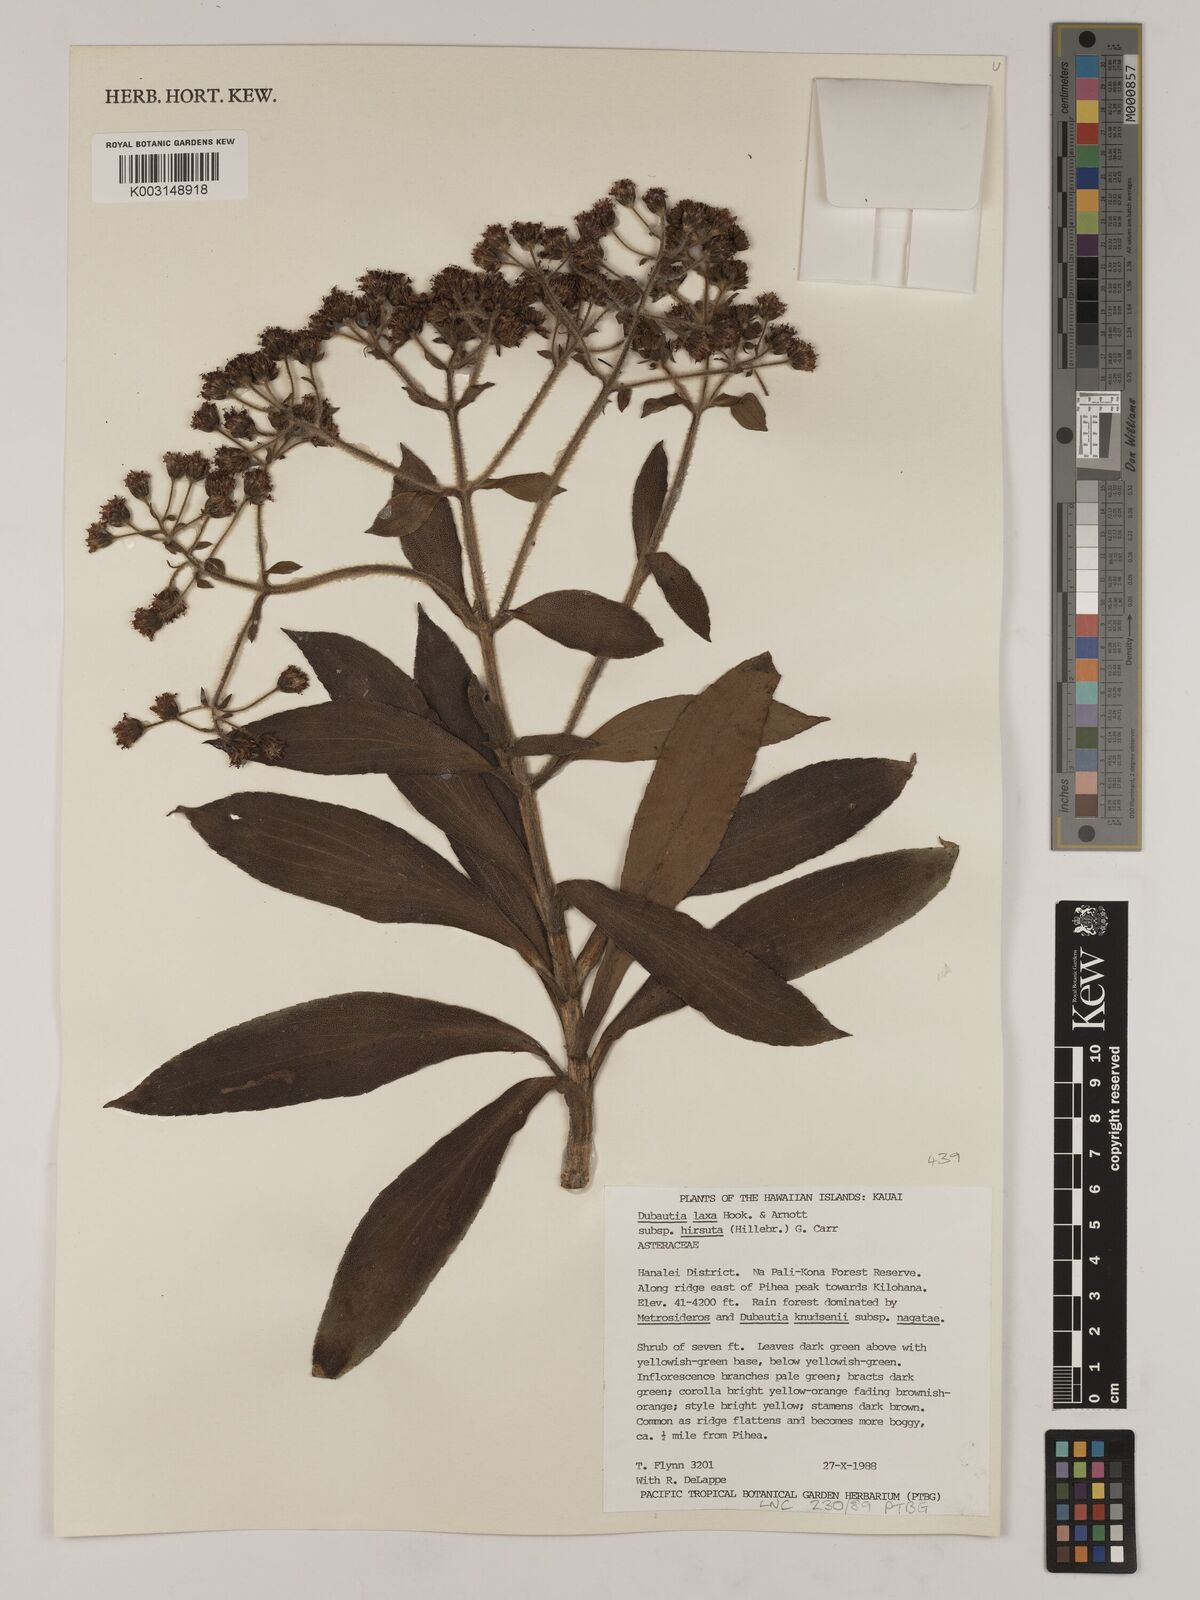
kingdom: Plantae
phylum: Tracheophyta
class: Magnoliopsida
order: Asterales
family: Asteraceae
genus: Dubautia
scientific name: Dubautia laxa
